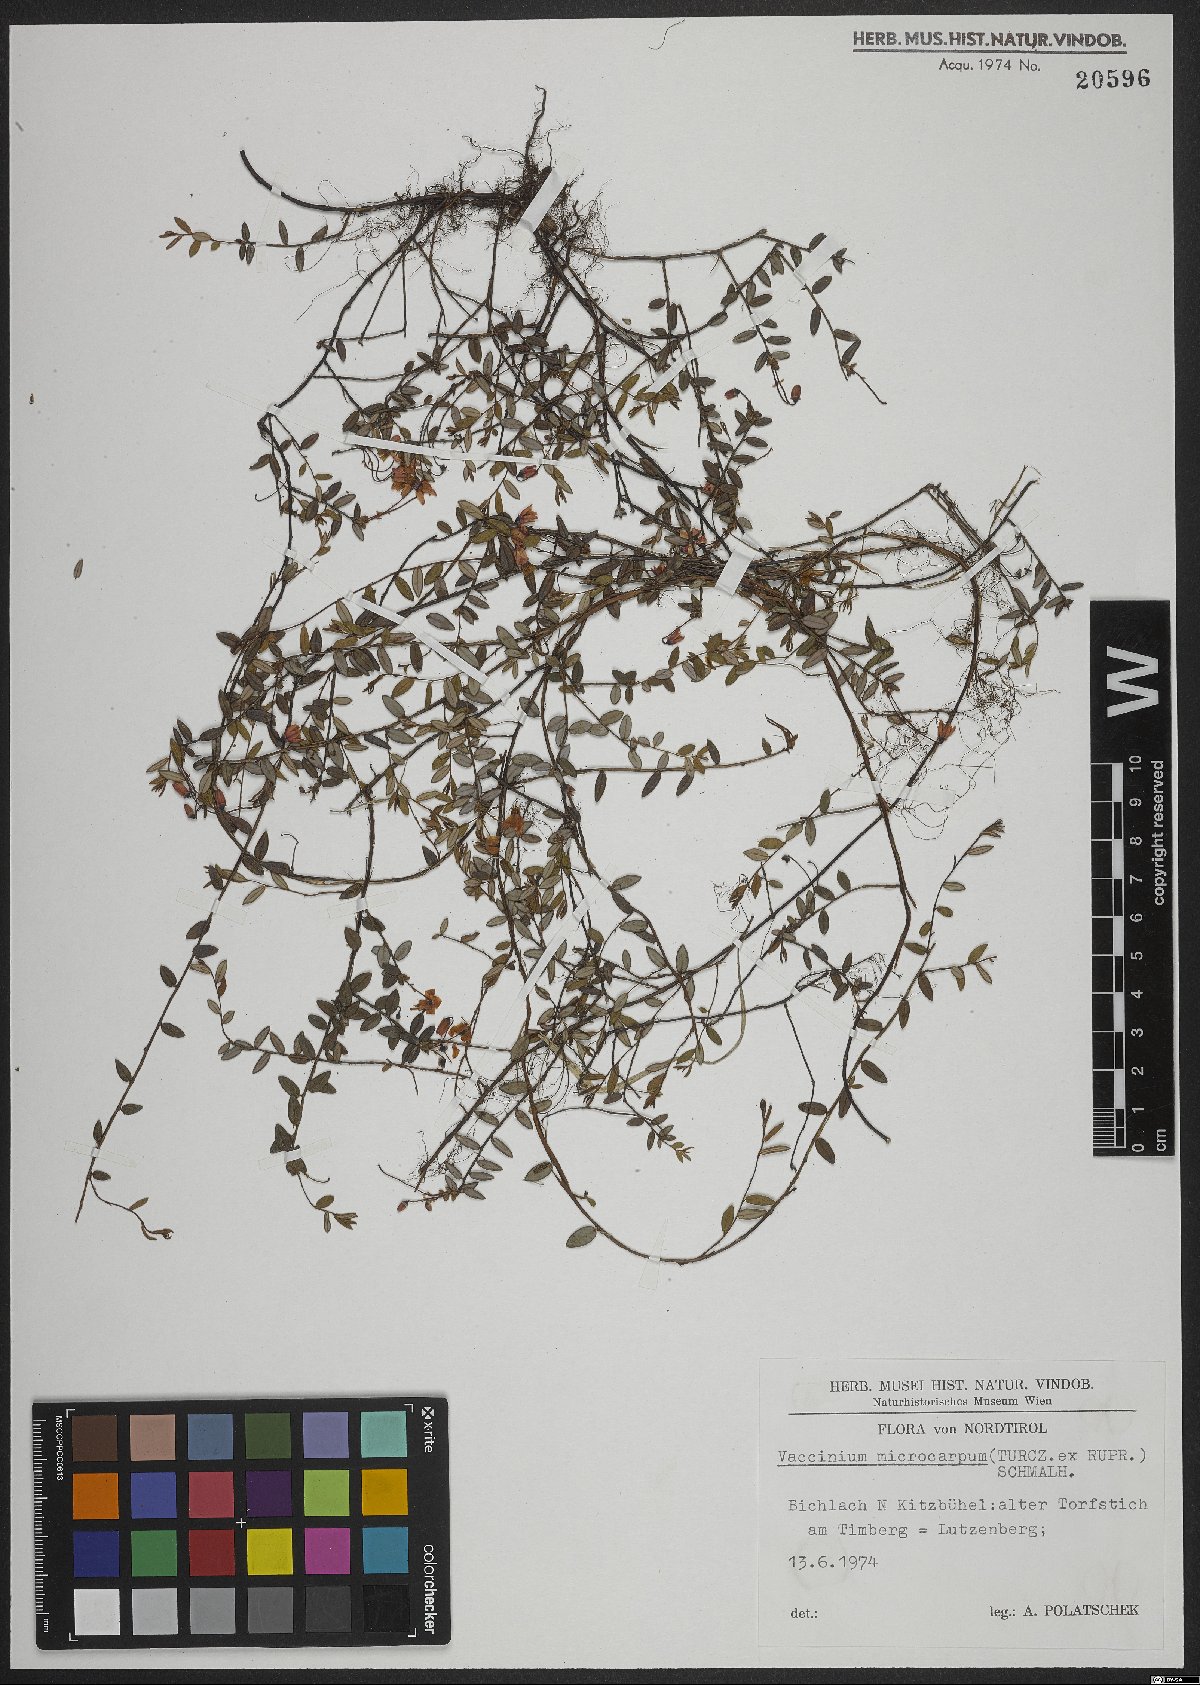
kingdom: Plantae
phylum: Tracheophyta
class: Magnoliopsida
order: Ericales
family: Ericaceae
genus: Vaccinium
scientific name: Vaccinium microcarpum
